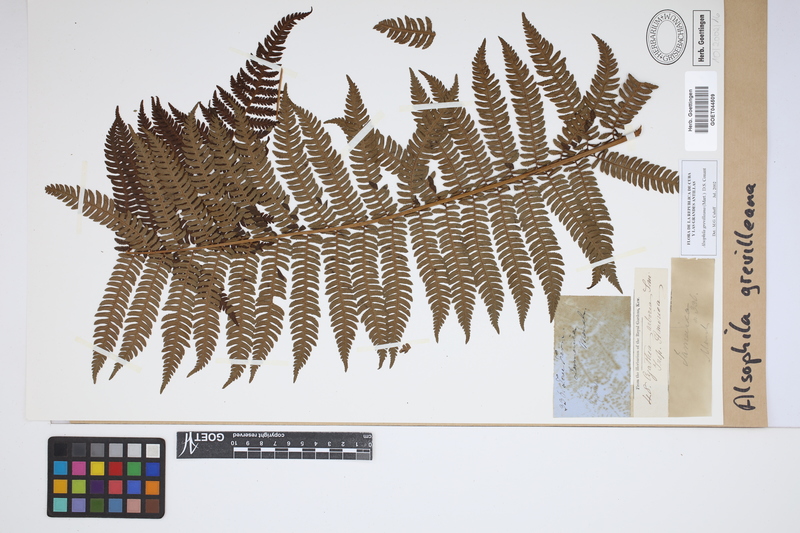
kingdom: Plantae
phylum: Tracheophyta
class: Polypodiopsida
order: Cyatheales
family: Cyatheaceae
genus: Alsophila
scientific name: Alsophila grevilleana
